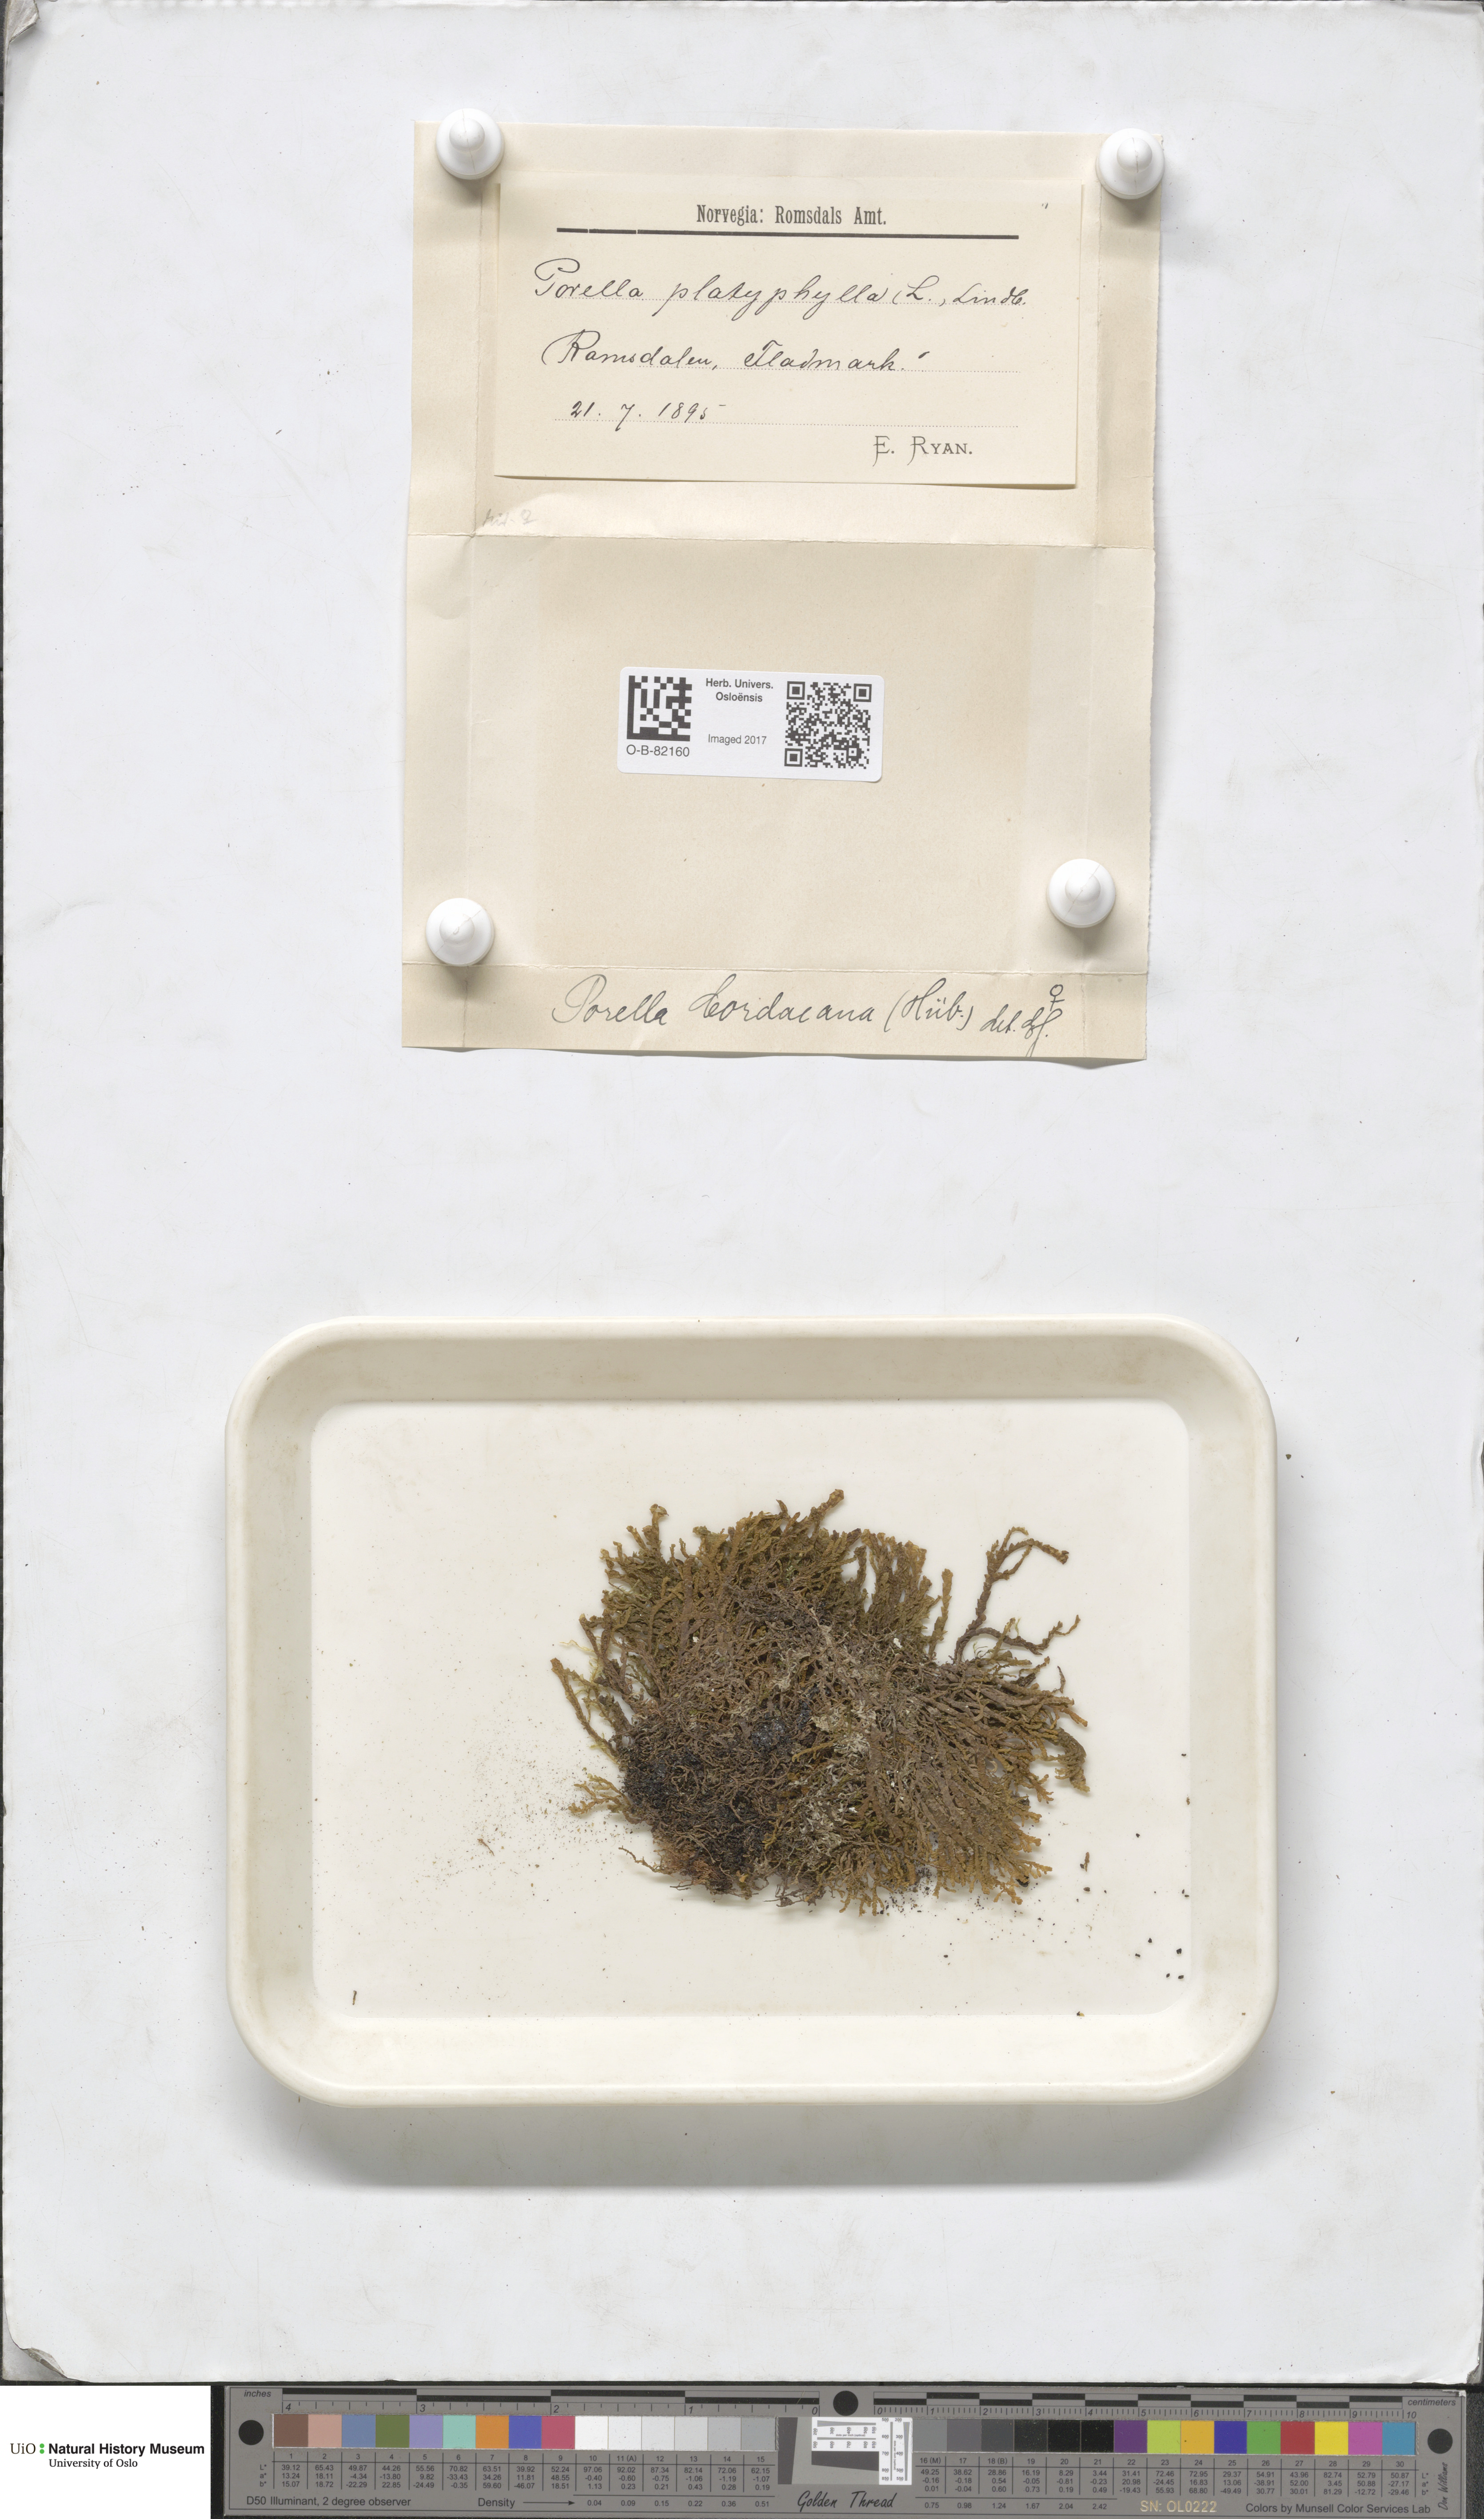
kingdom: Plantae
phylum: Marchantiophyta
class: Jungermanniopsida
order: Porellales
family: Porellaceae
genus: Porella
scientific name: Porella cordaeana
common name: Cliff scalewort
